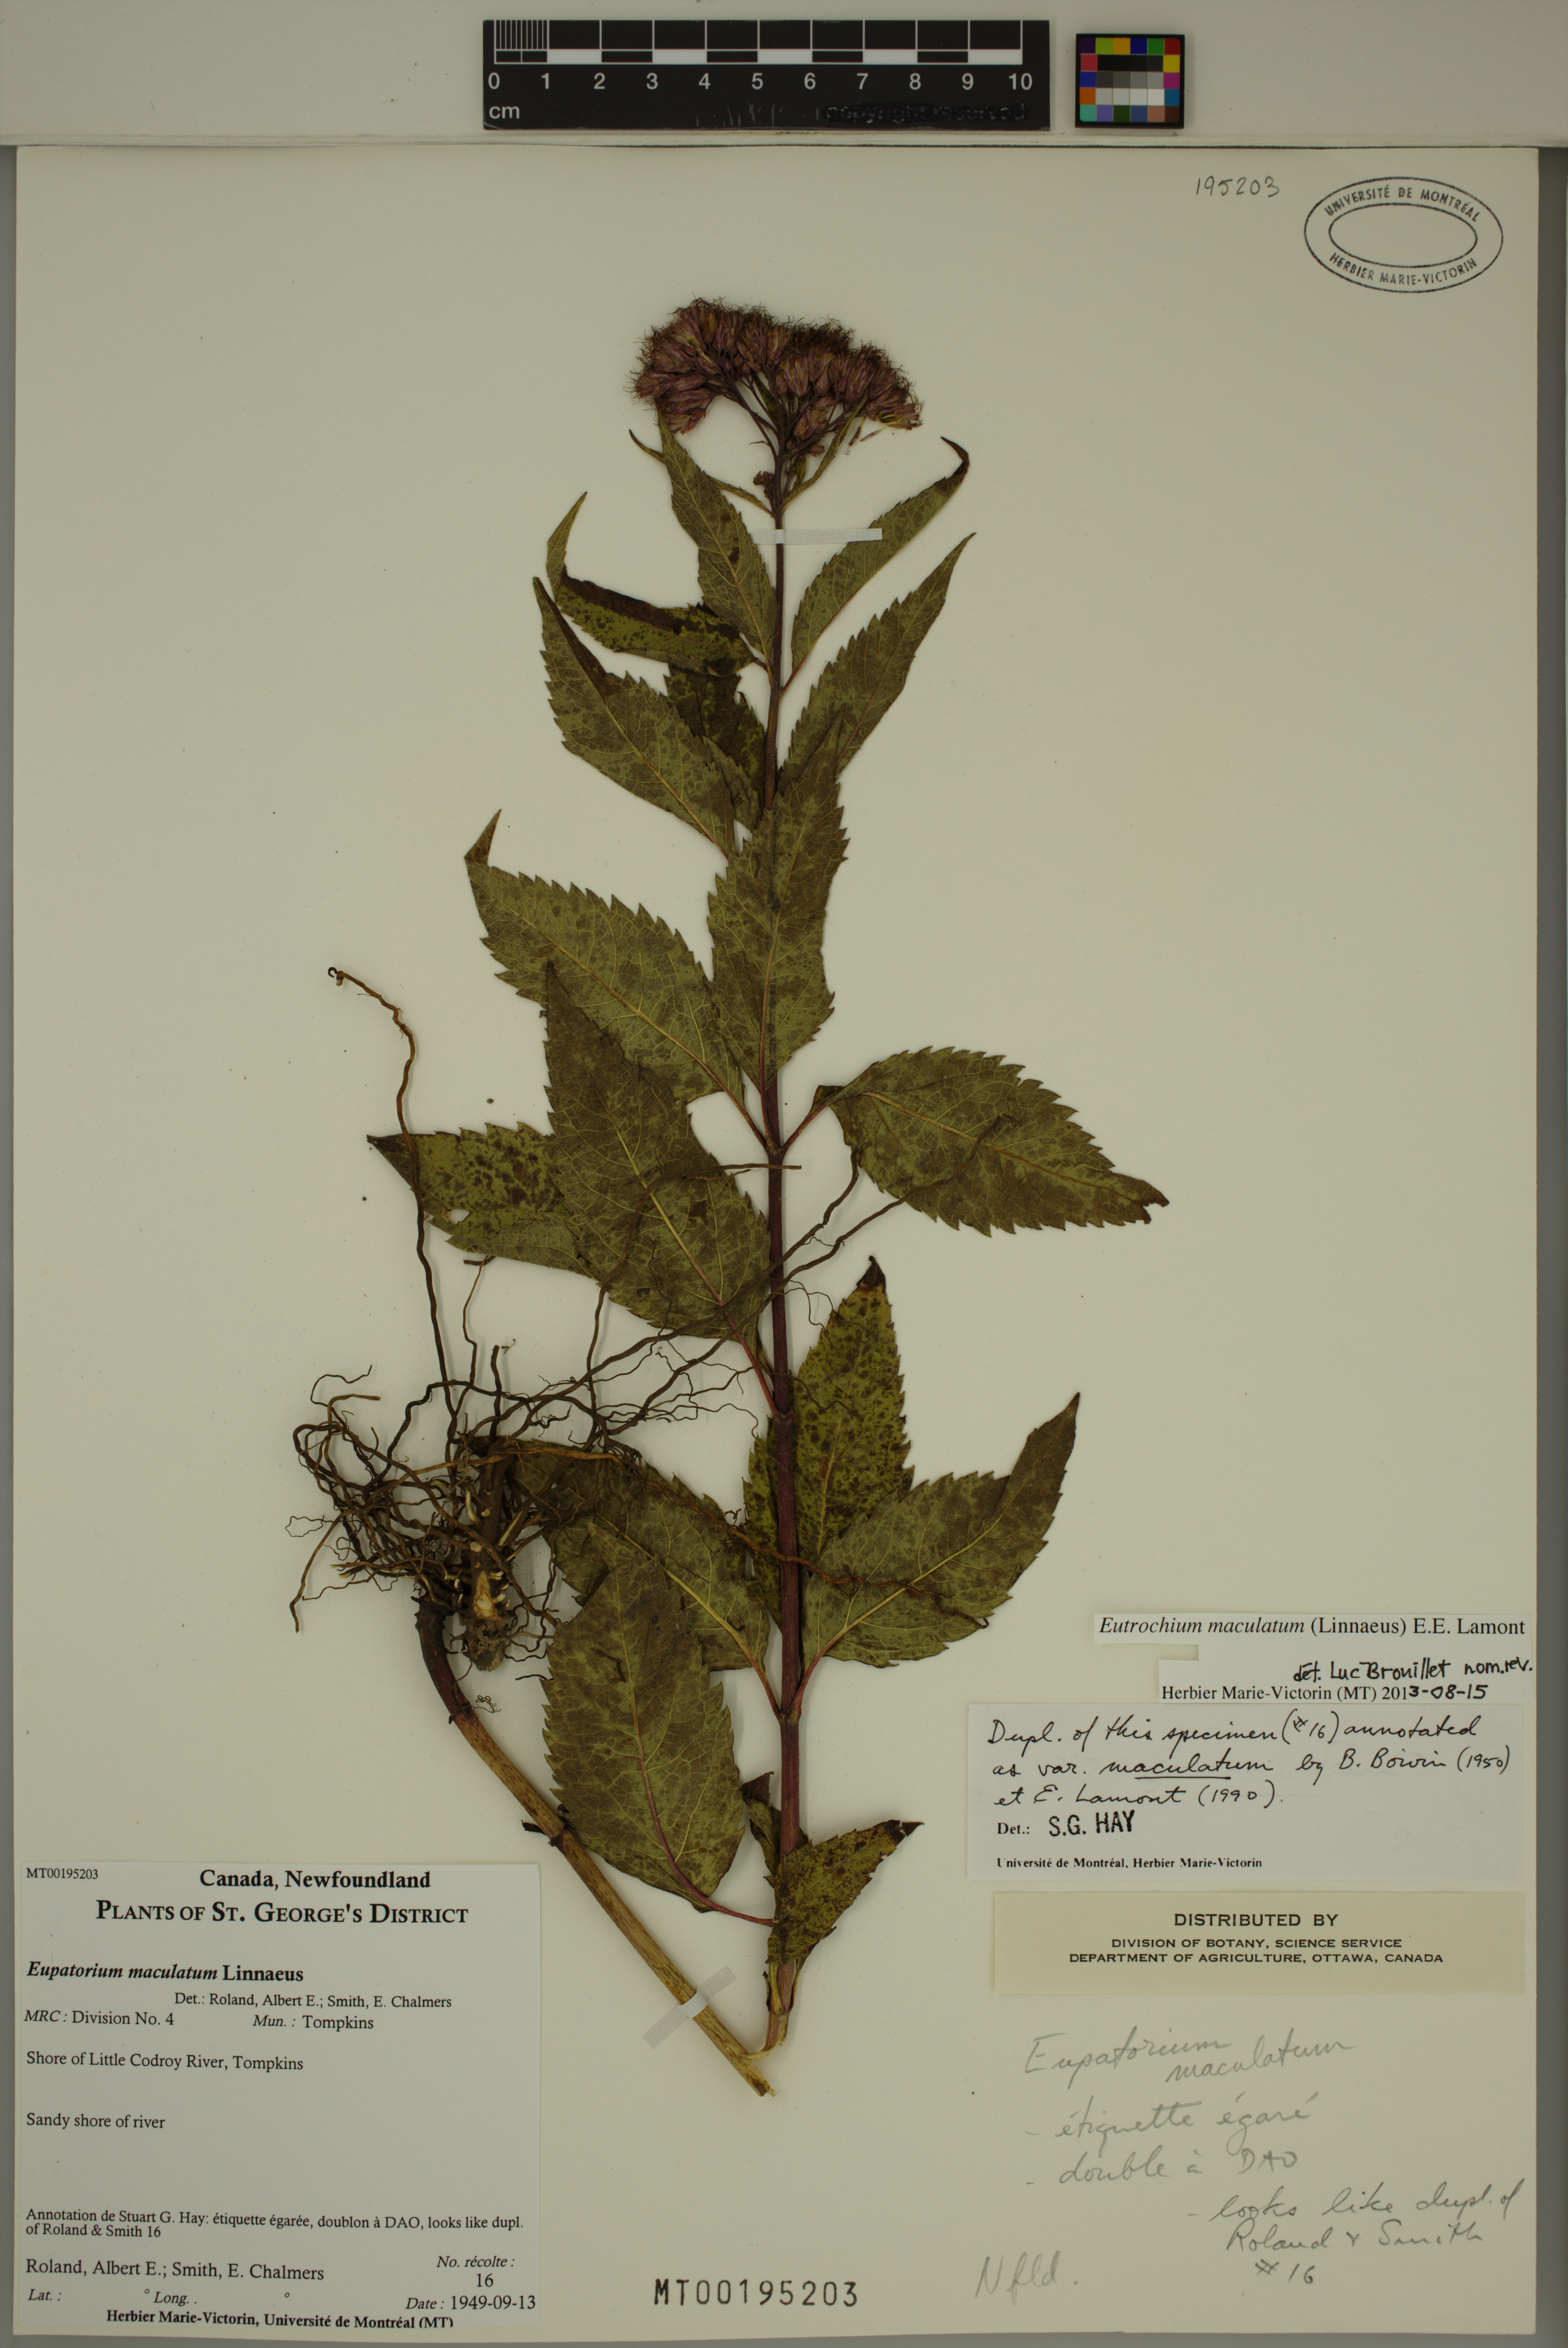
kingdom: Plantae
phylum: Tracheophyta
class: Magnoliopsida
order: Asterales
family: Asteraceae
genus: Eutrochium
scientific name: Eutrochium maculatum
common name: Spotted joe pye weed
